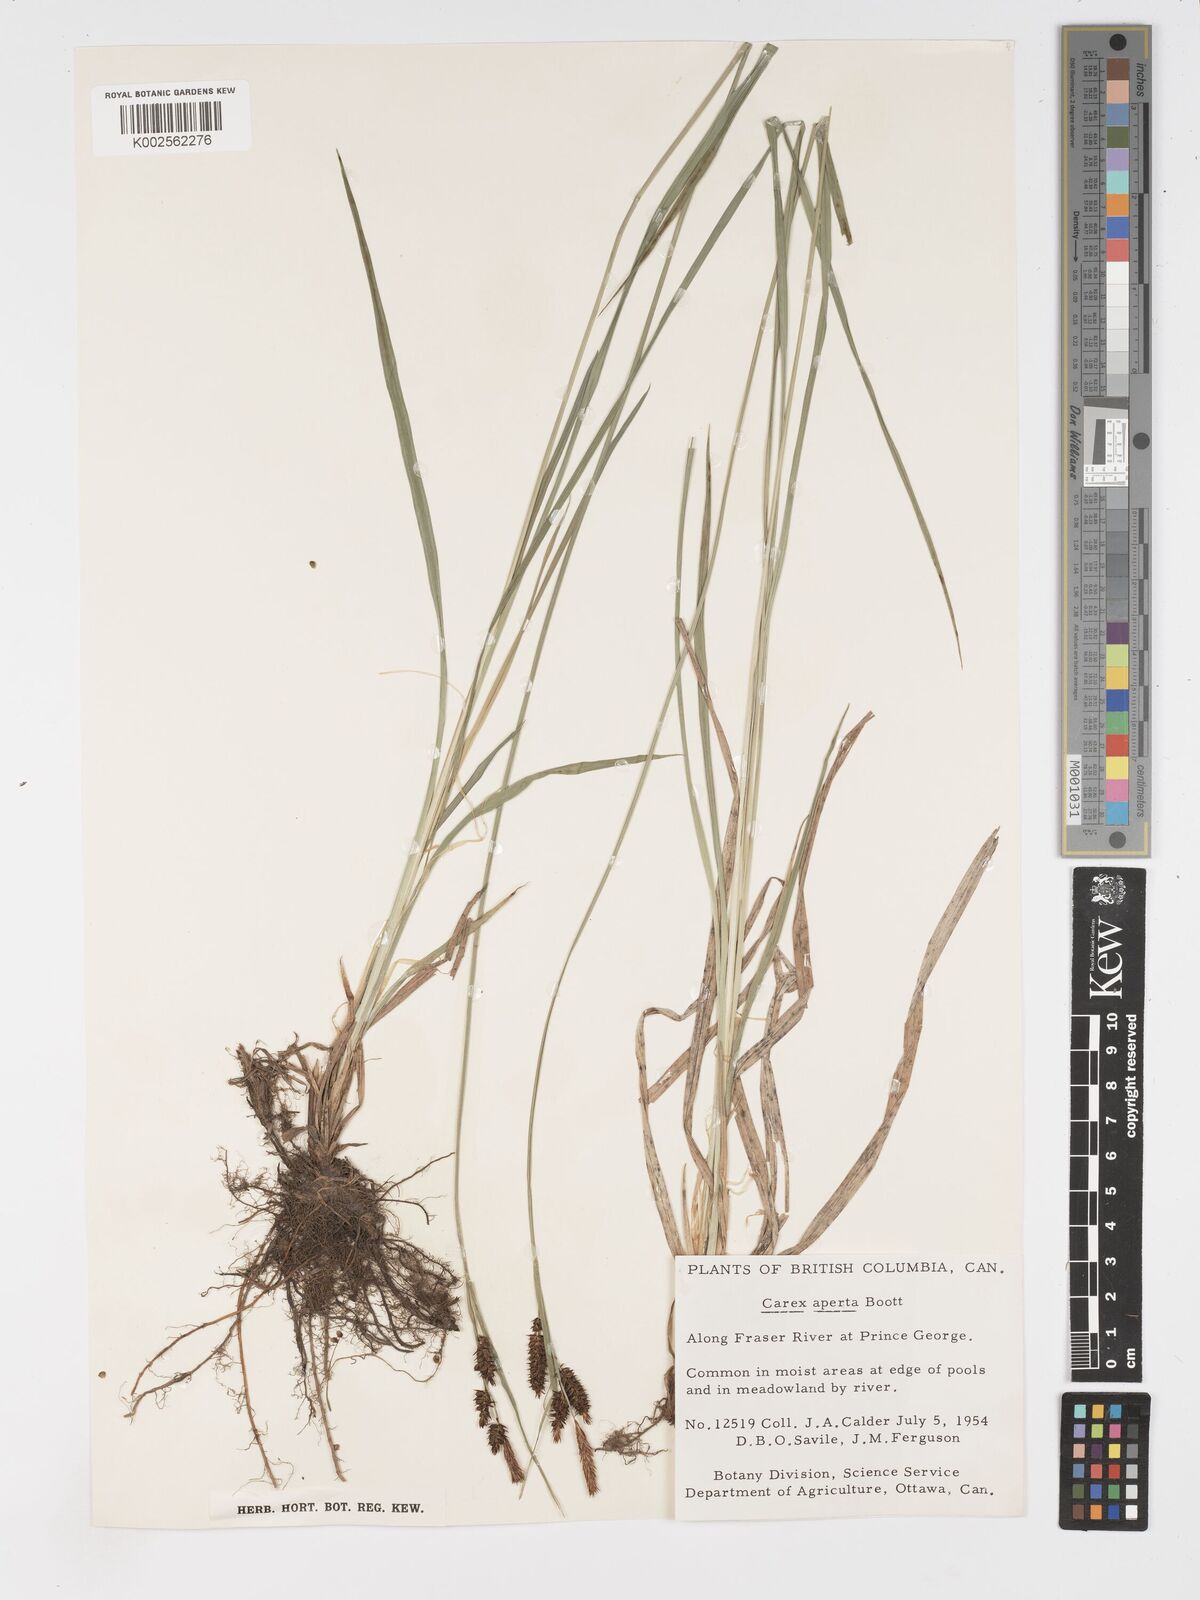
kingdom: Plantae
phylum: Tracheophyta
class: Liliopsida
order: Poales
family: Cyperaceae
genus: Carex
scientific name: Carex aperta
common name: Columbia sedge
